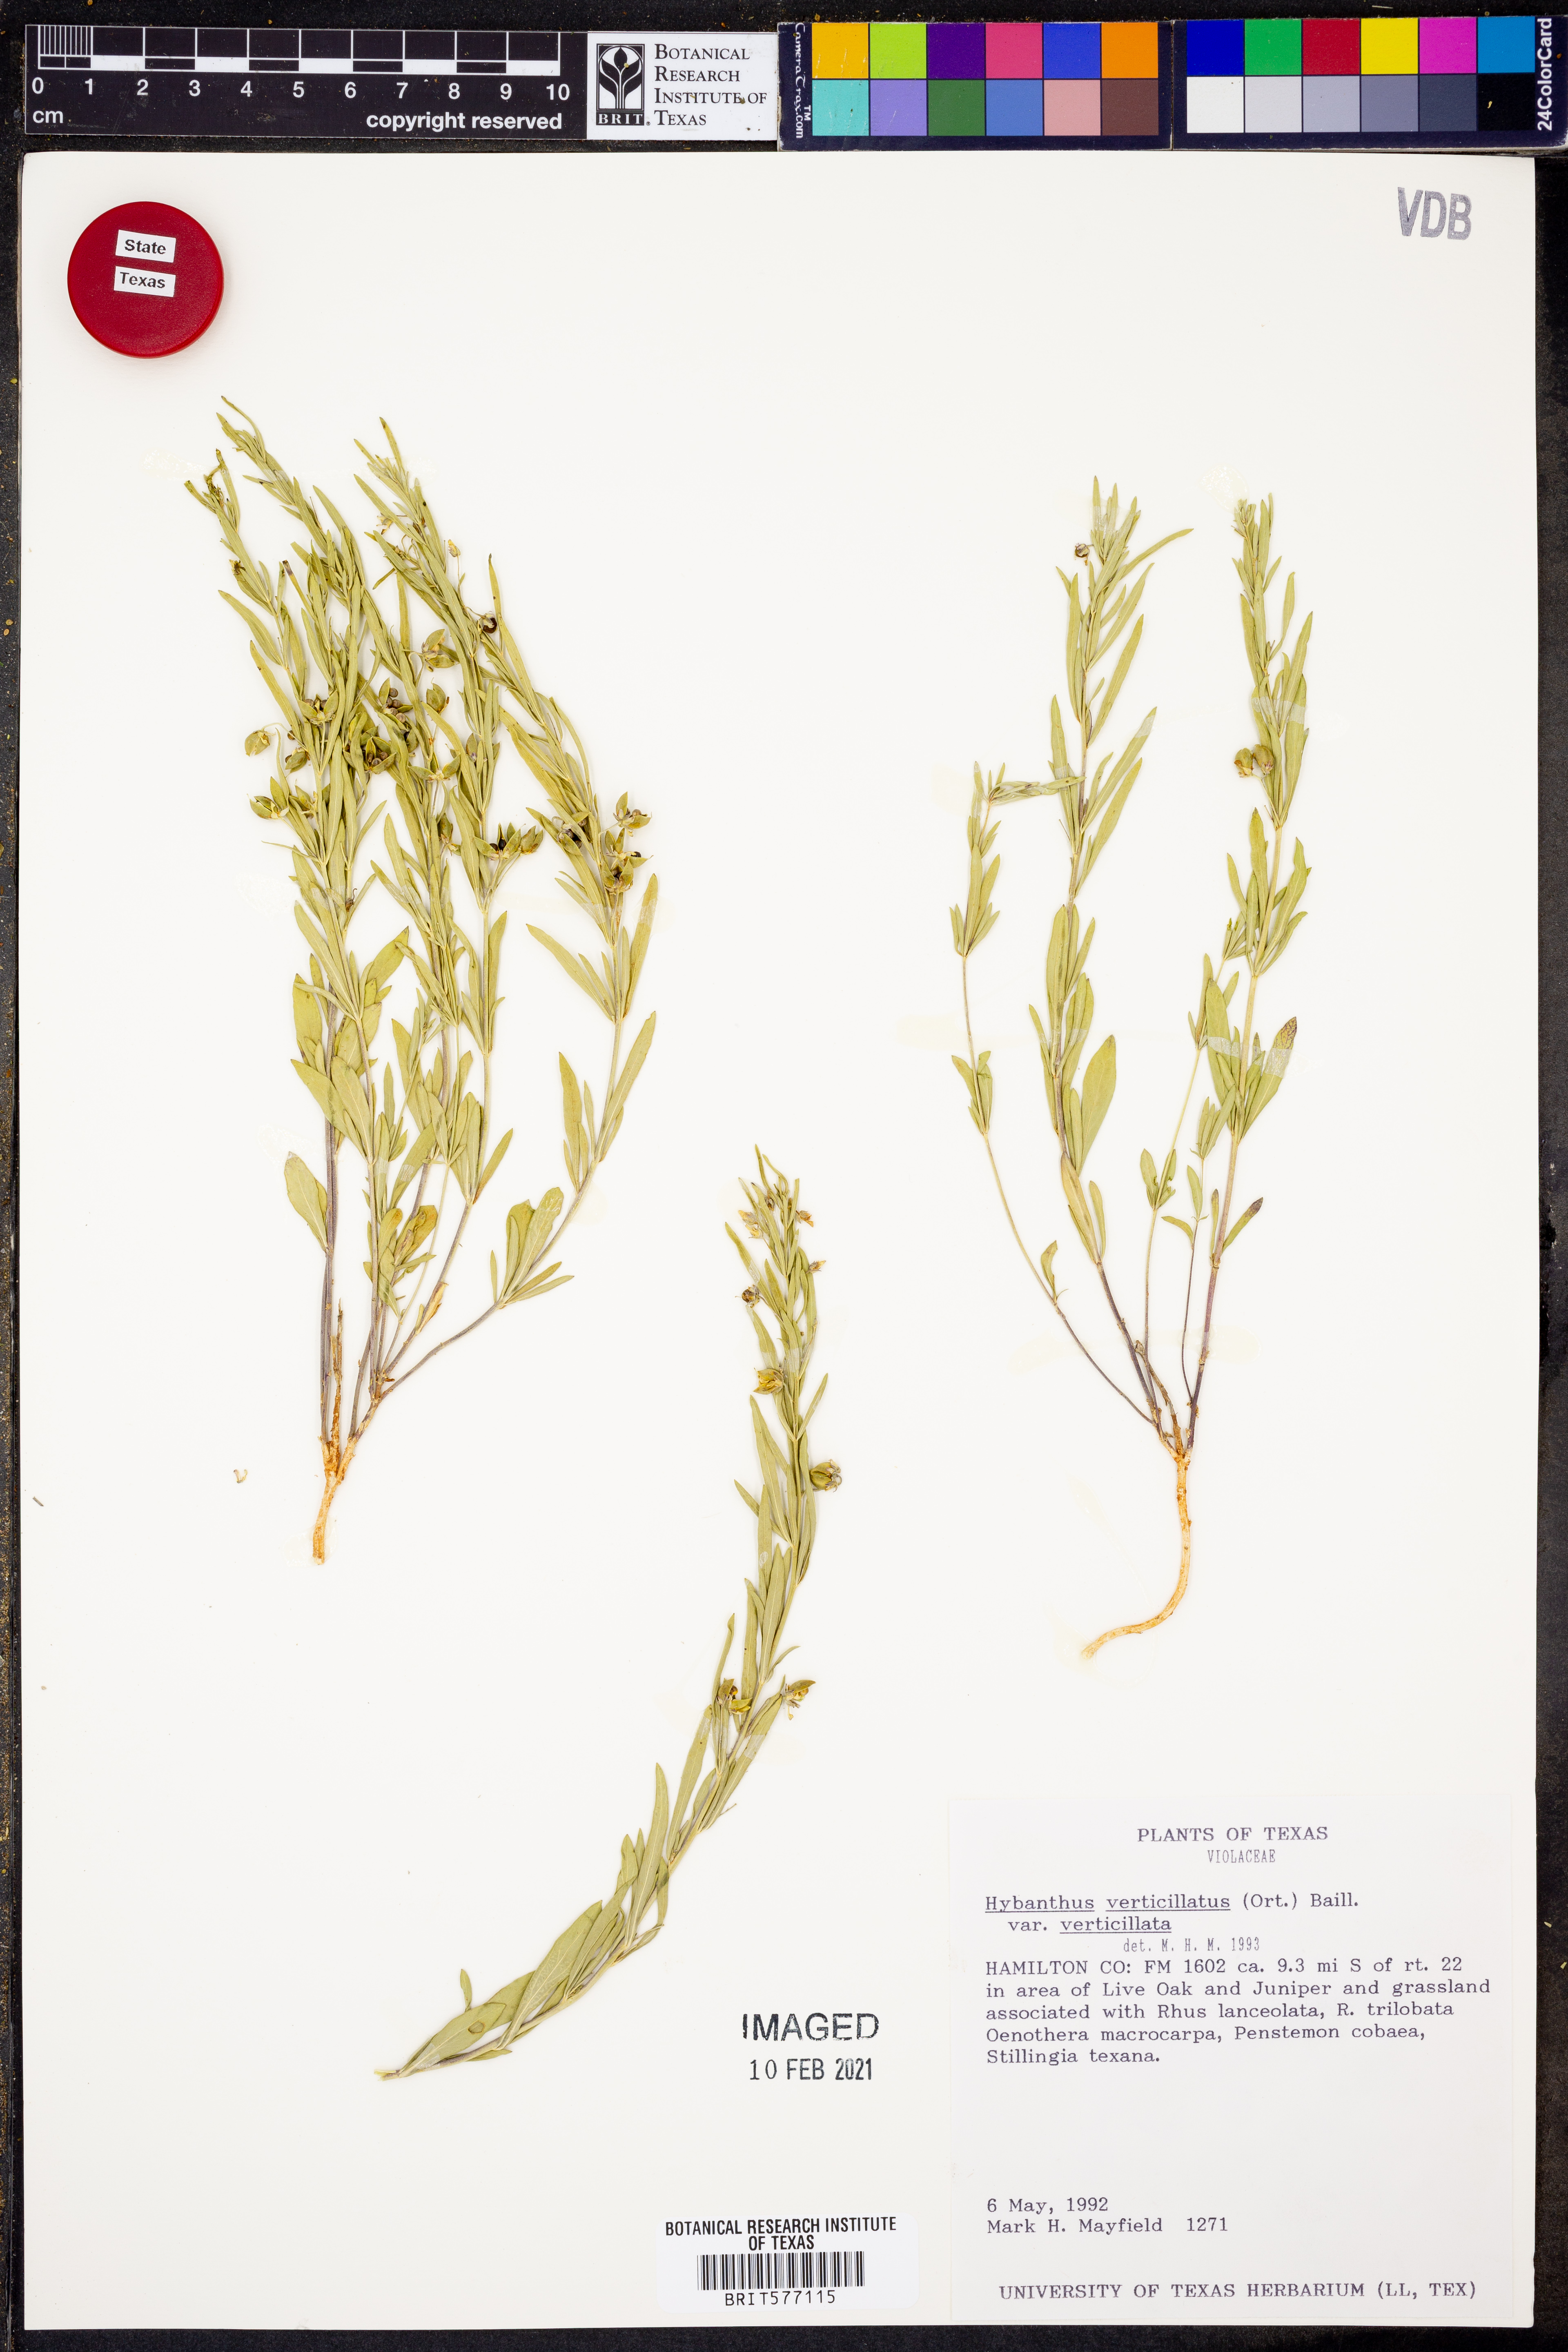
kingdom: Plantae
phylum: Tracheophyta
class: Magnoliopsida
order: Malpighiales
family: Violaceae
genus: Pombalia
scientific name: Pombalia verticillata
